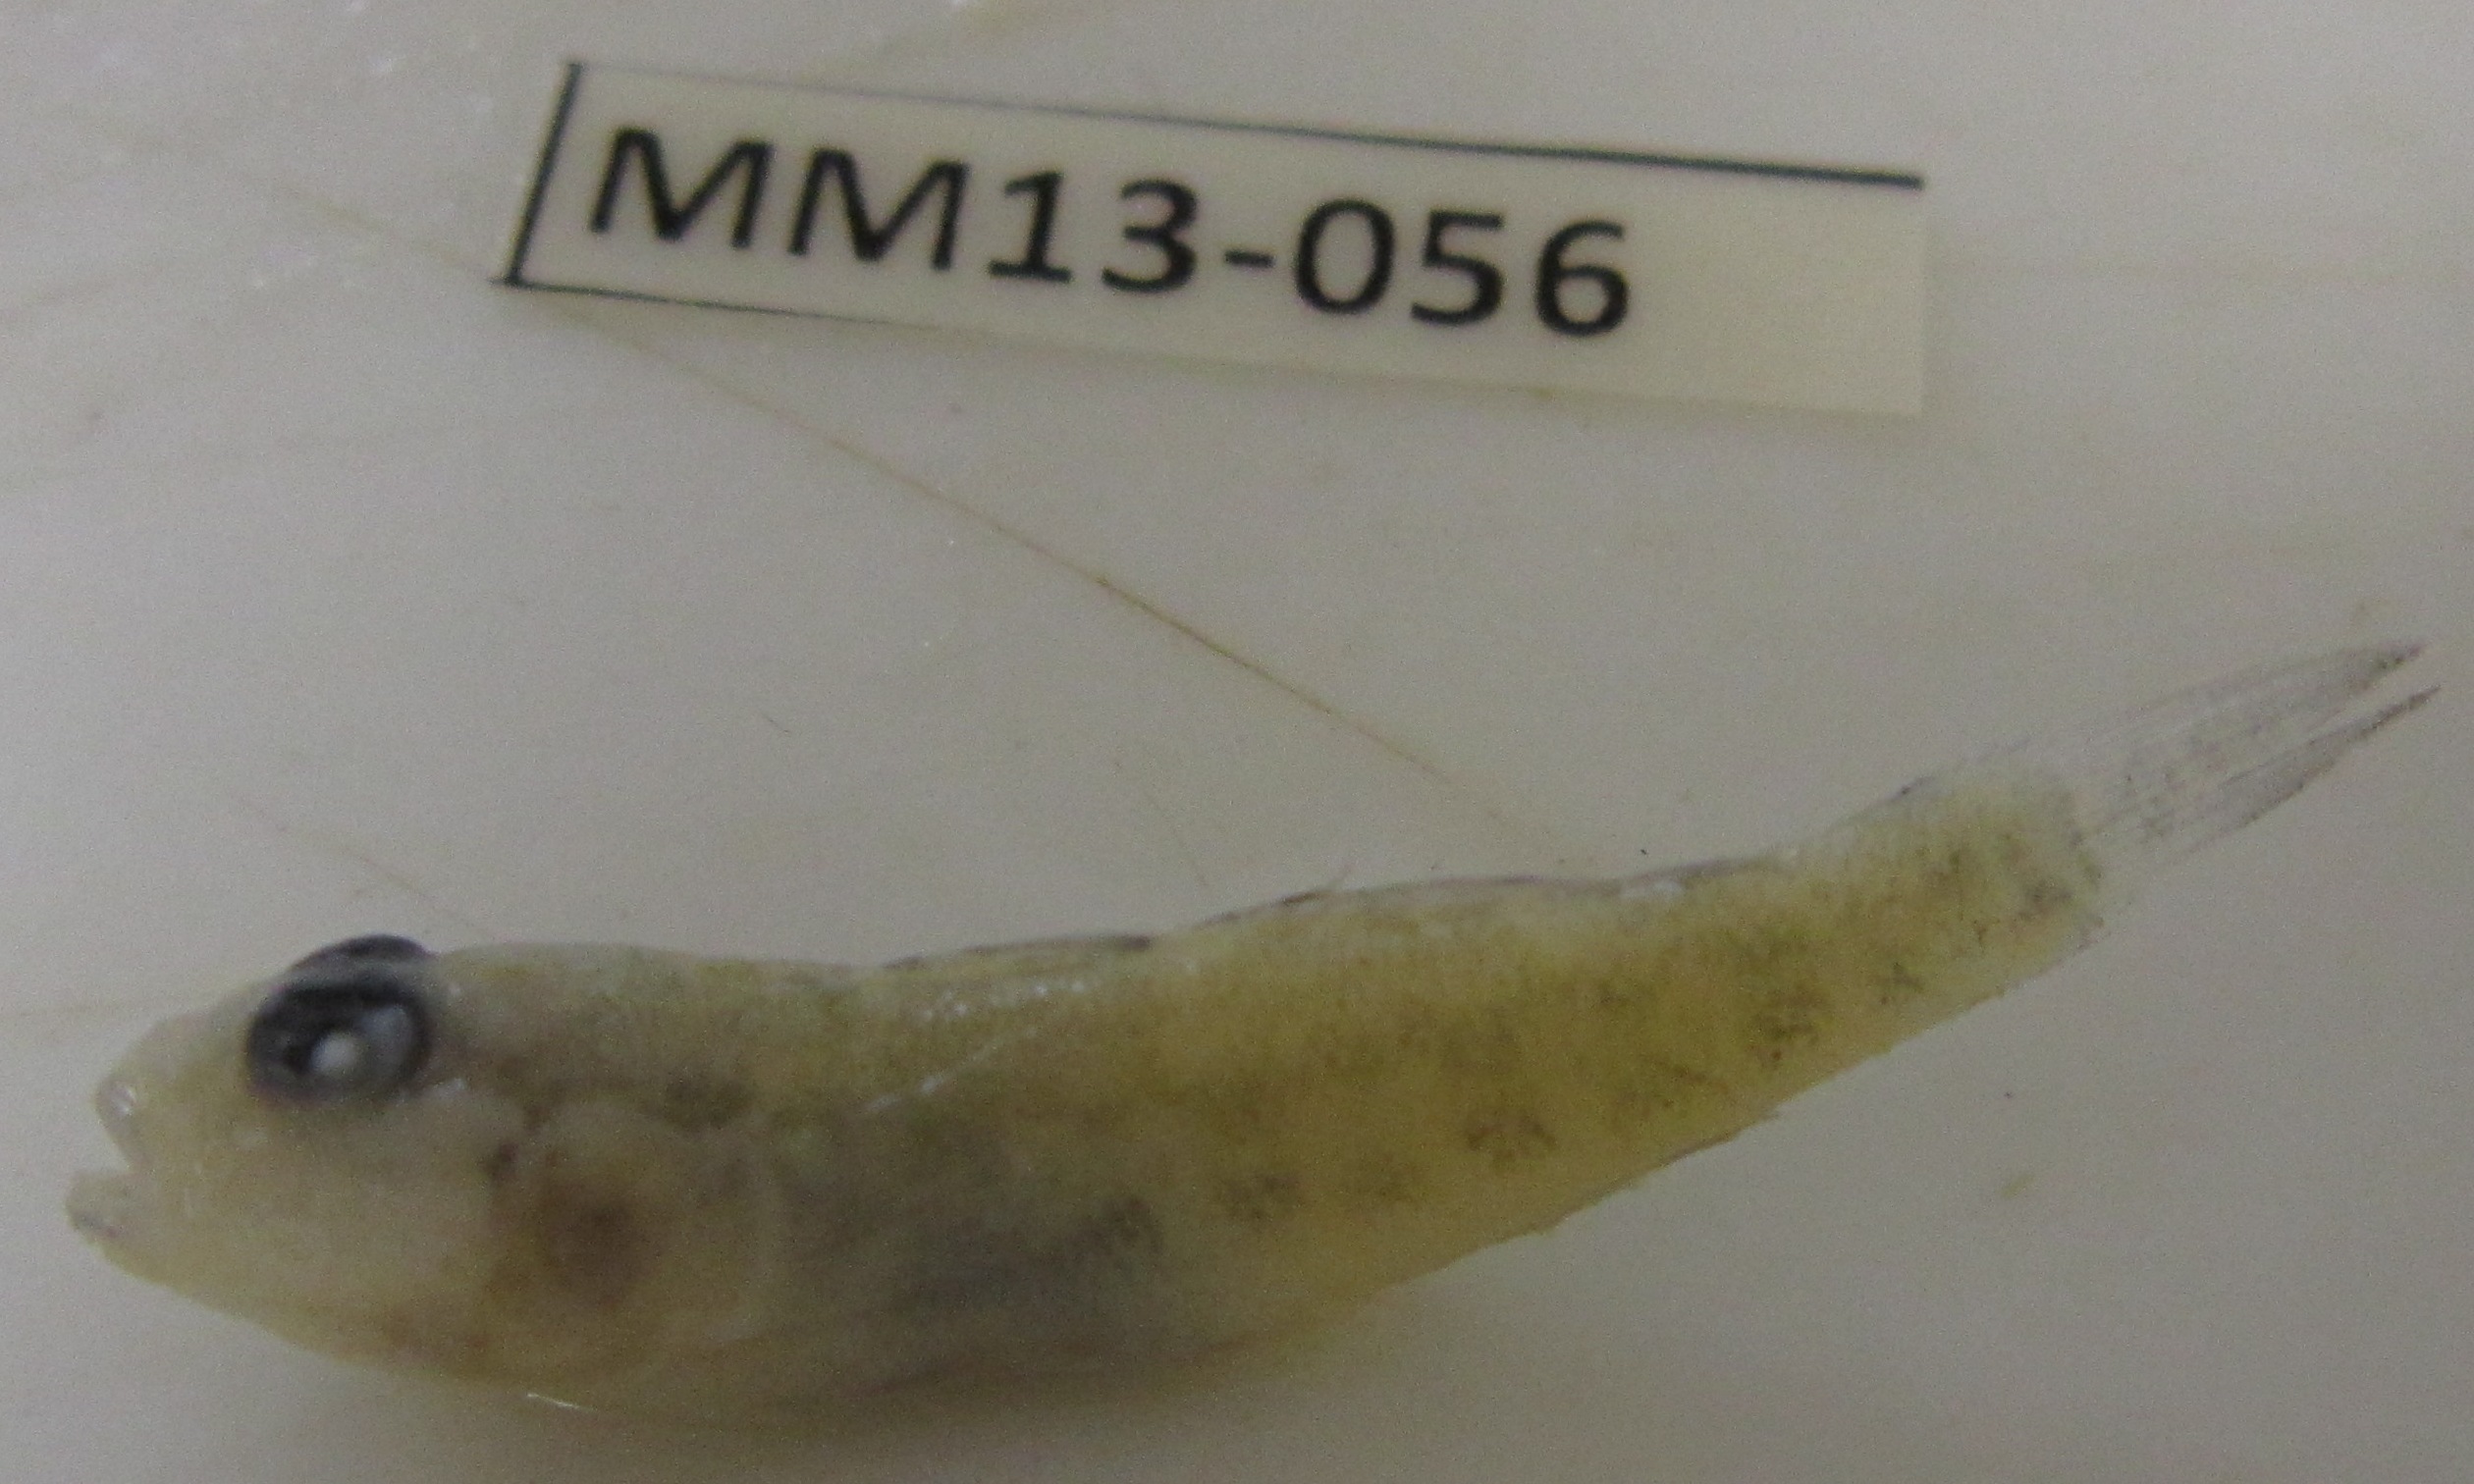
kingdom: Animalia
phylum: Chordata
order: Perciformes
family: Gobiidae
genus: Caffrogobius
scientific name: Caffrogobius
